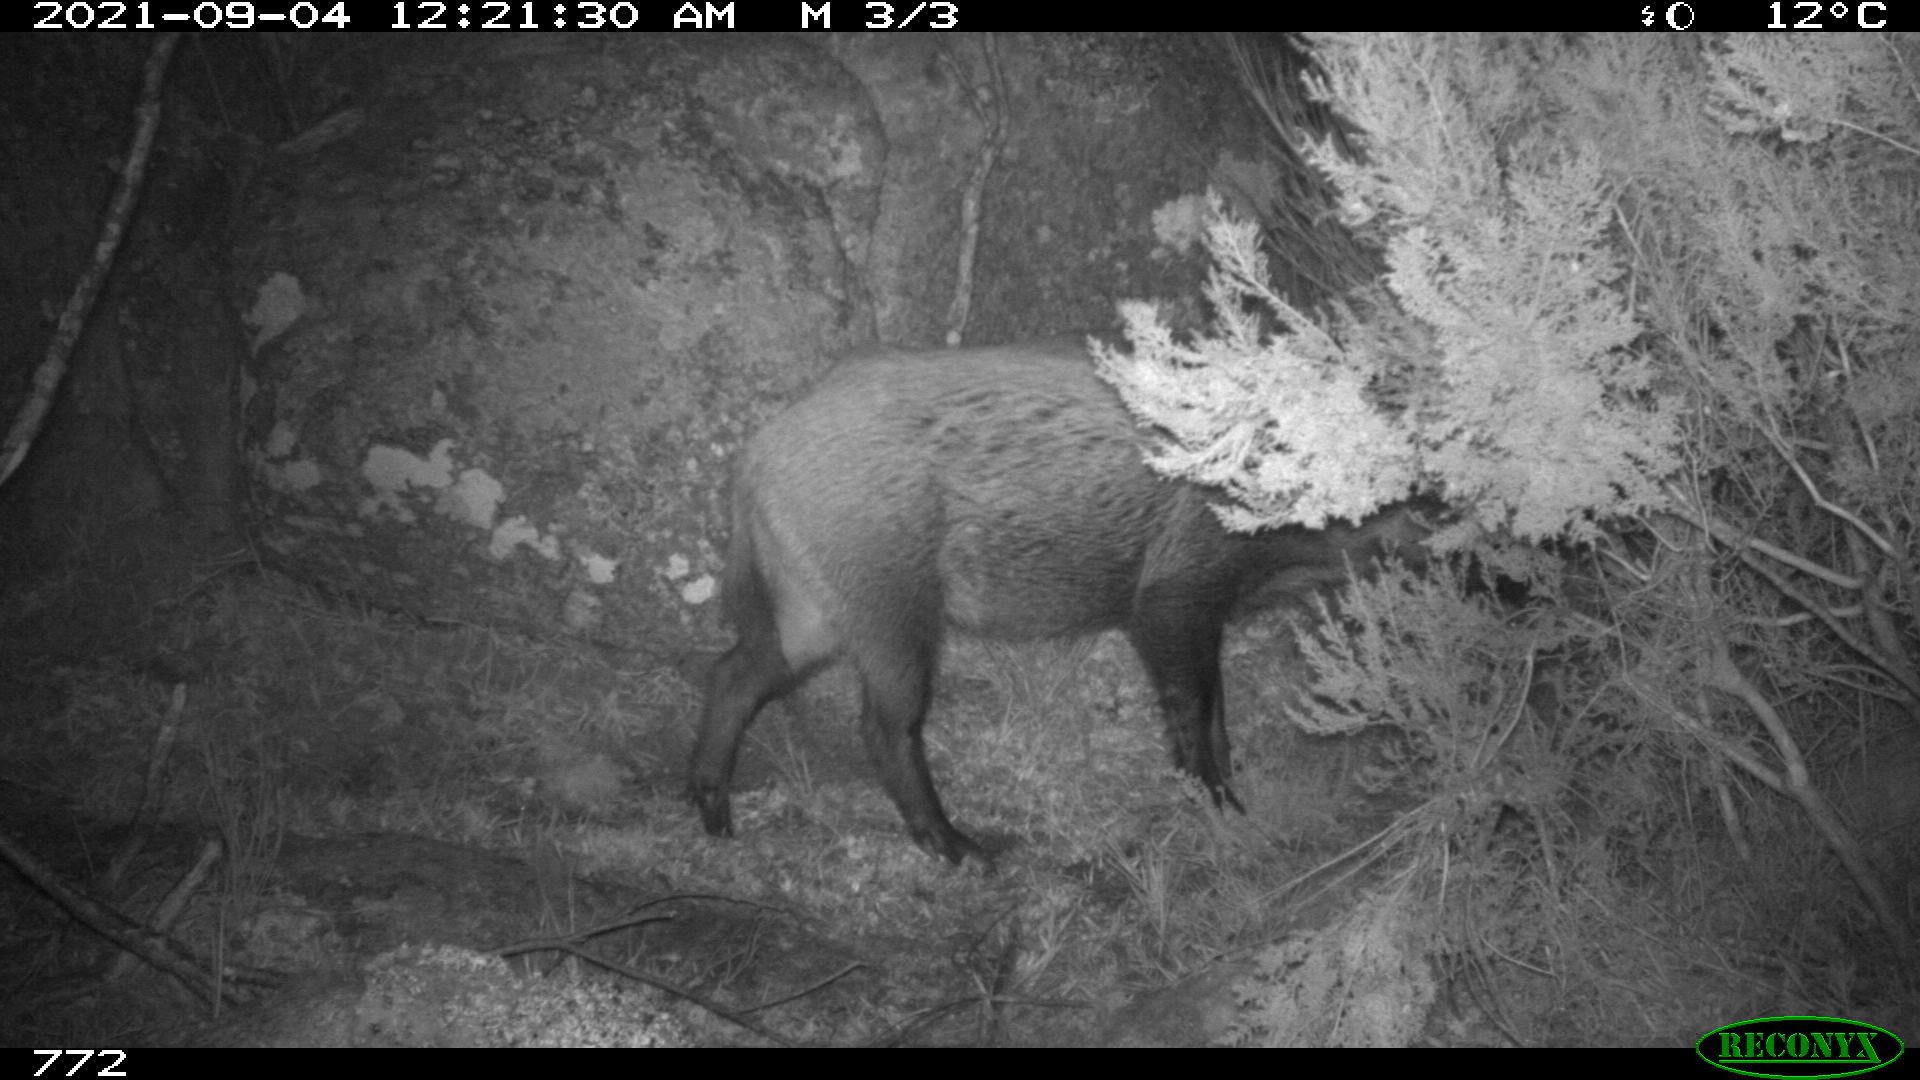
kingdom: Animalia
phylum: Chordata
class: Mammalia
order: Artiodactyla
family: Suidae
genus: Sus
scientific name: Sus scrofa
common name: Wild boar
